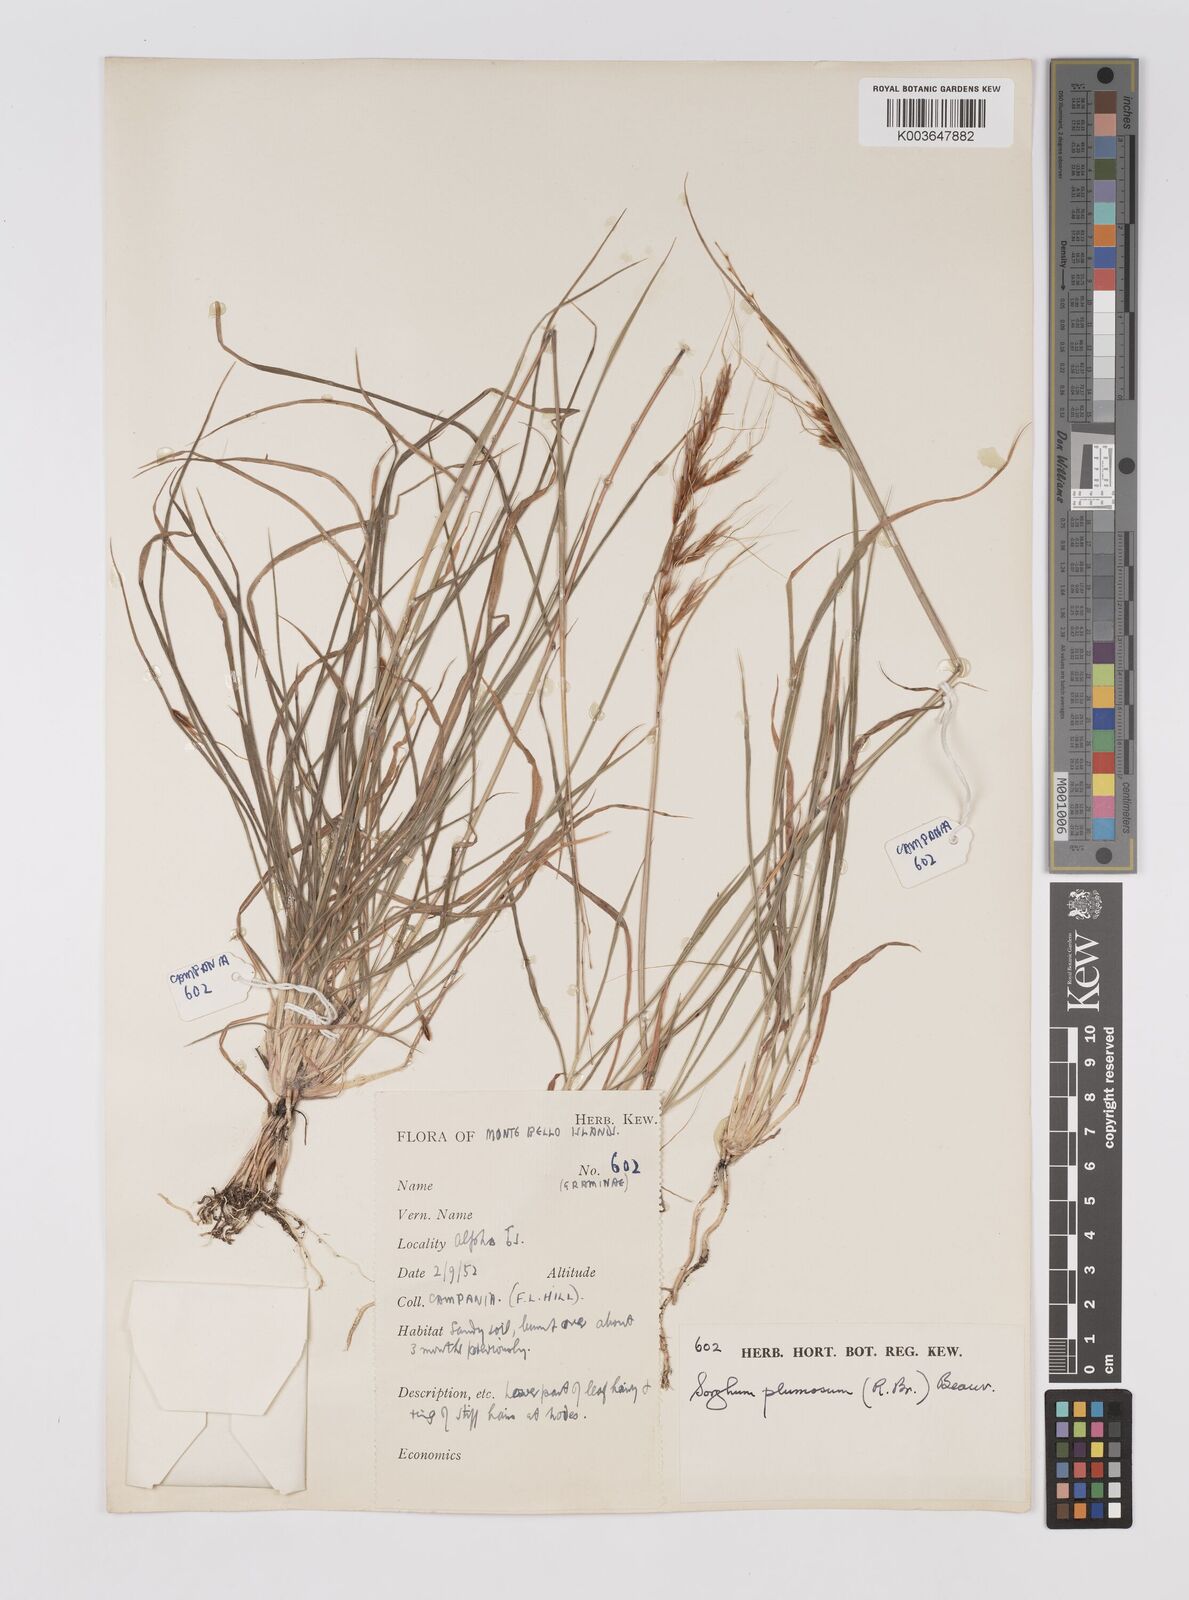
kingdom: Plantae
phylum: Tracheophyta
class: Liliopsida
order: Poales
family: Poaceae
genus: Sarga
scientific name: Sarga plumosa
